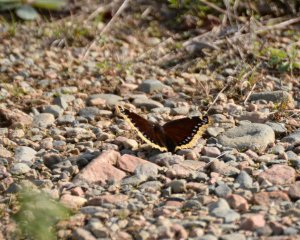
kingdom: Animalia
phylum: Arthropoda
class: Insecta
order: Lepidoptera
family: Nymphalidae
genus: Nymphalis
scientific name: Nymphalis antiopa
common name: Mourning Cloak
